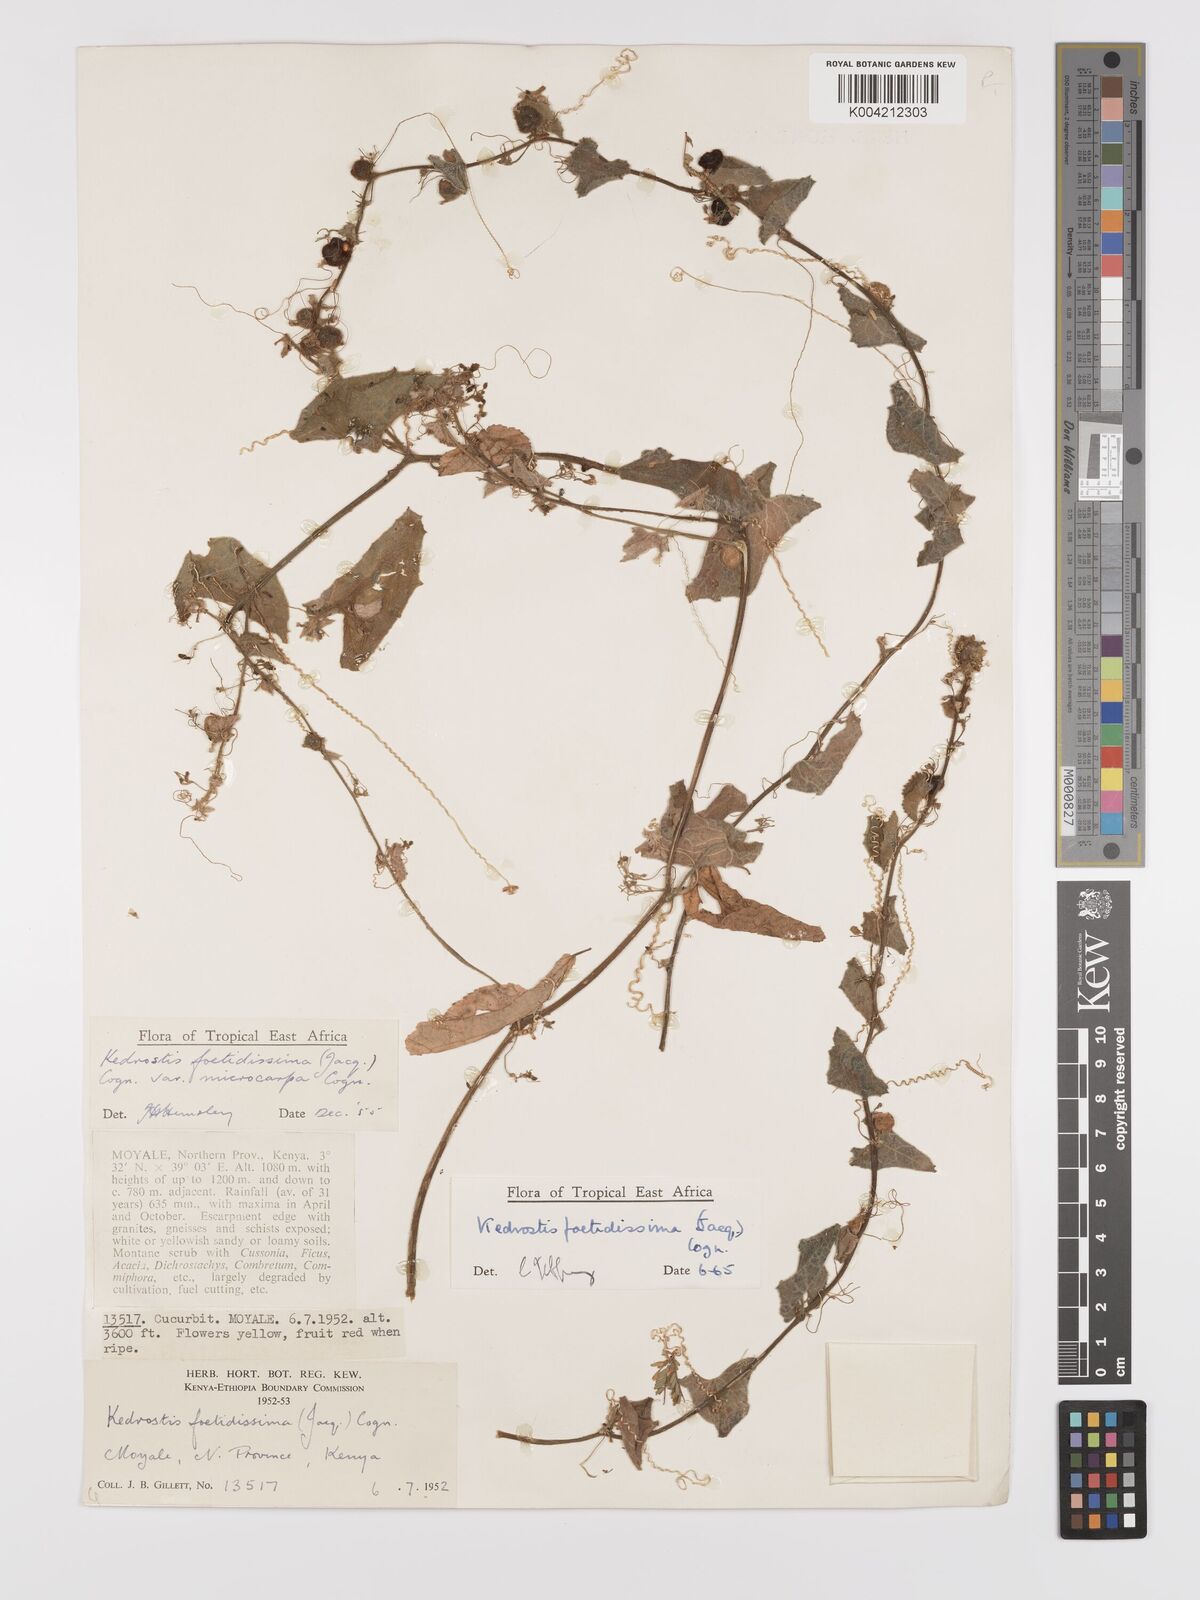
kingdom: Plantae
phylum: Tracheophyta
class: Magnoliopsida
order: Cucurbitales
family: Cucurbitaceae
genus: Kedrostis
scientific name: Kedrostis foetidissima
